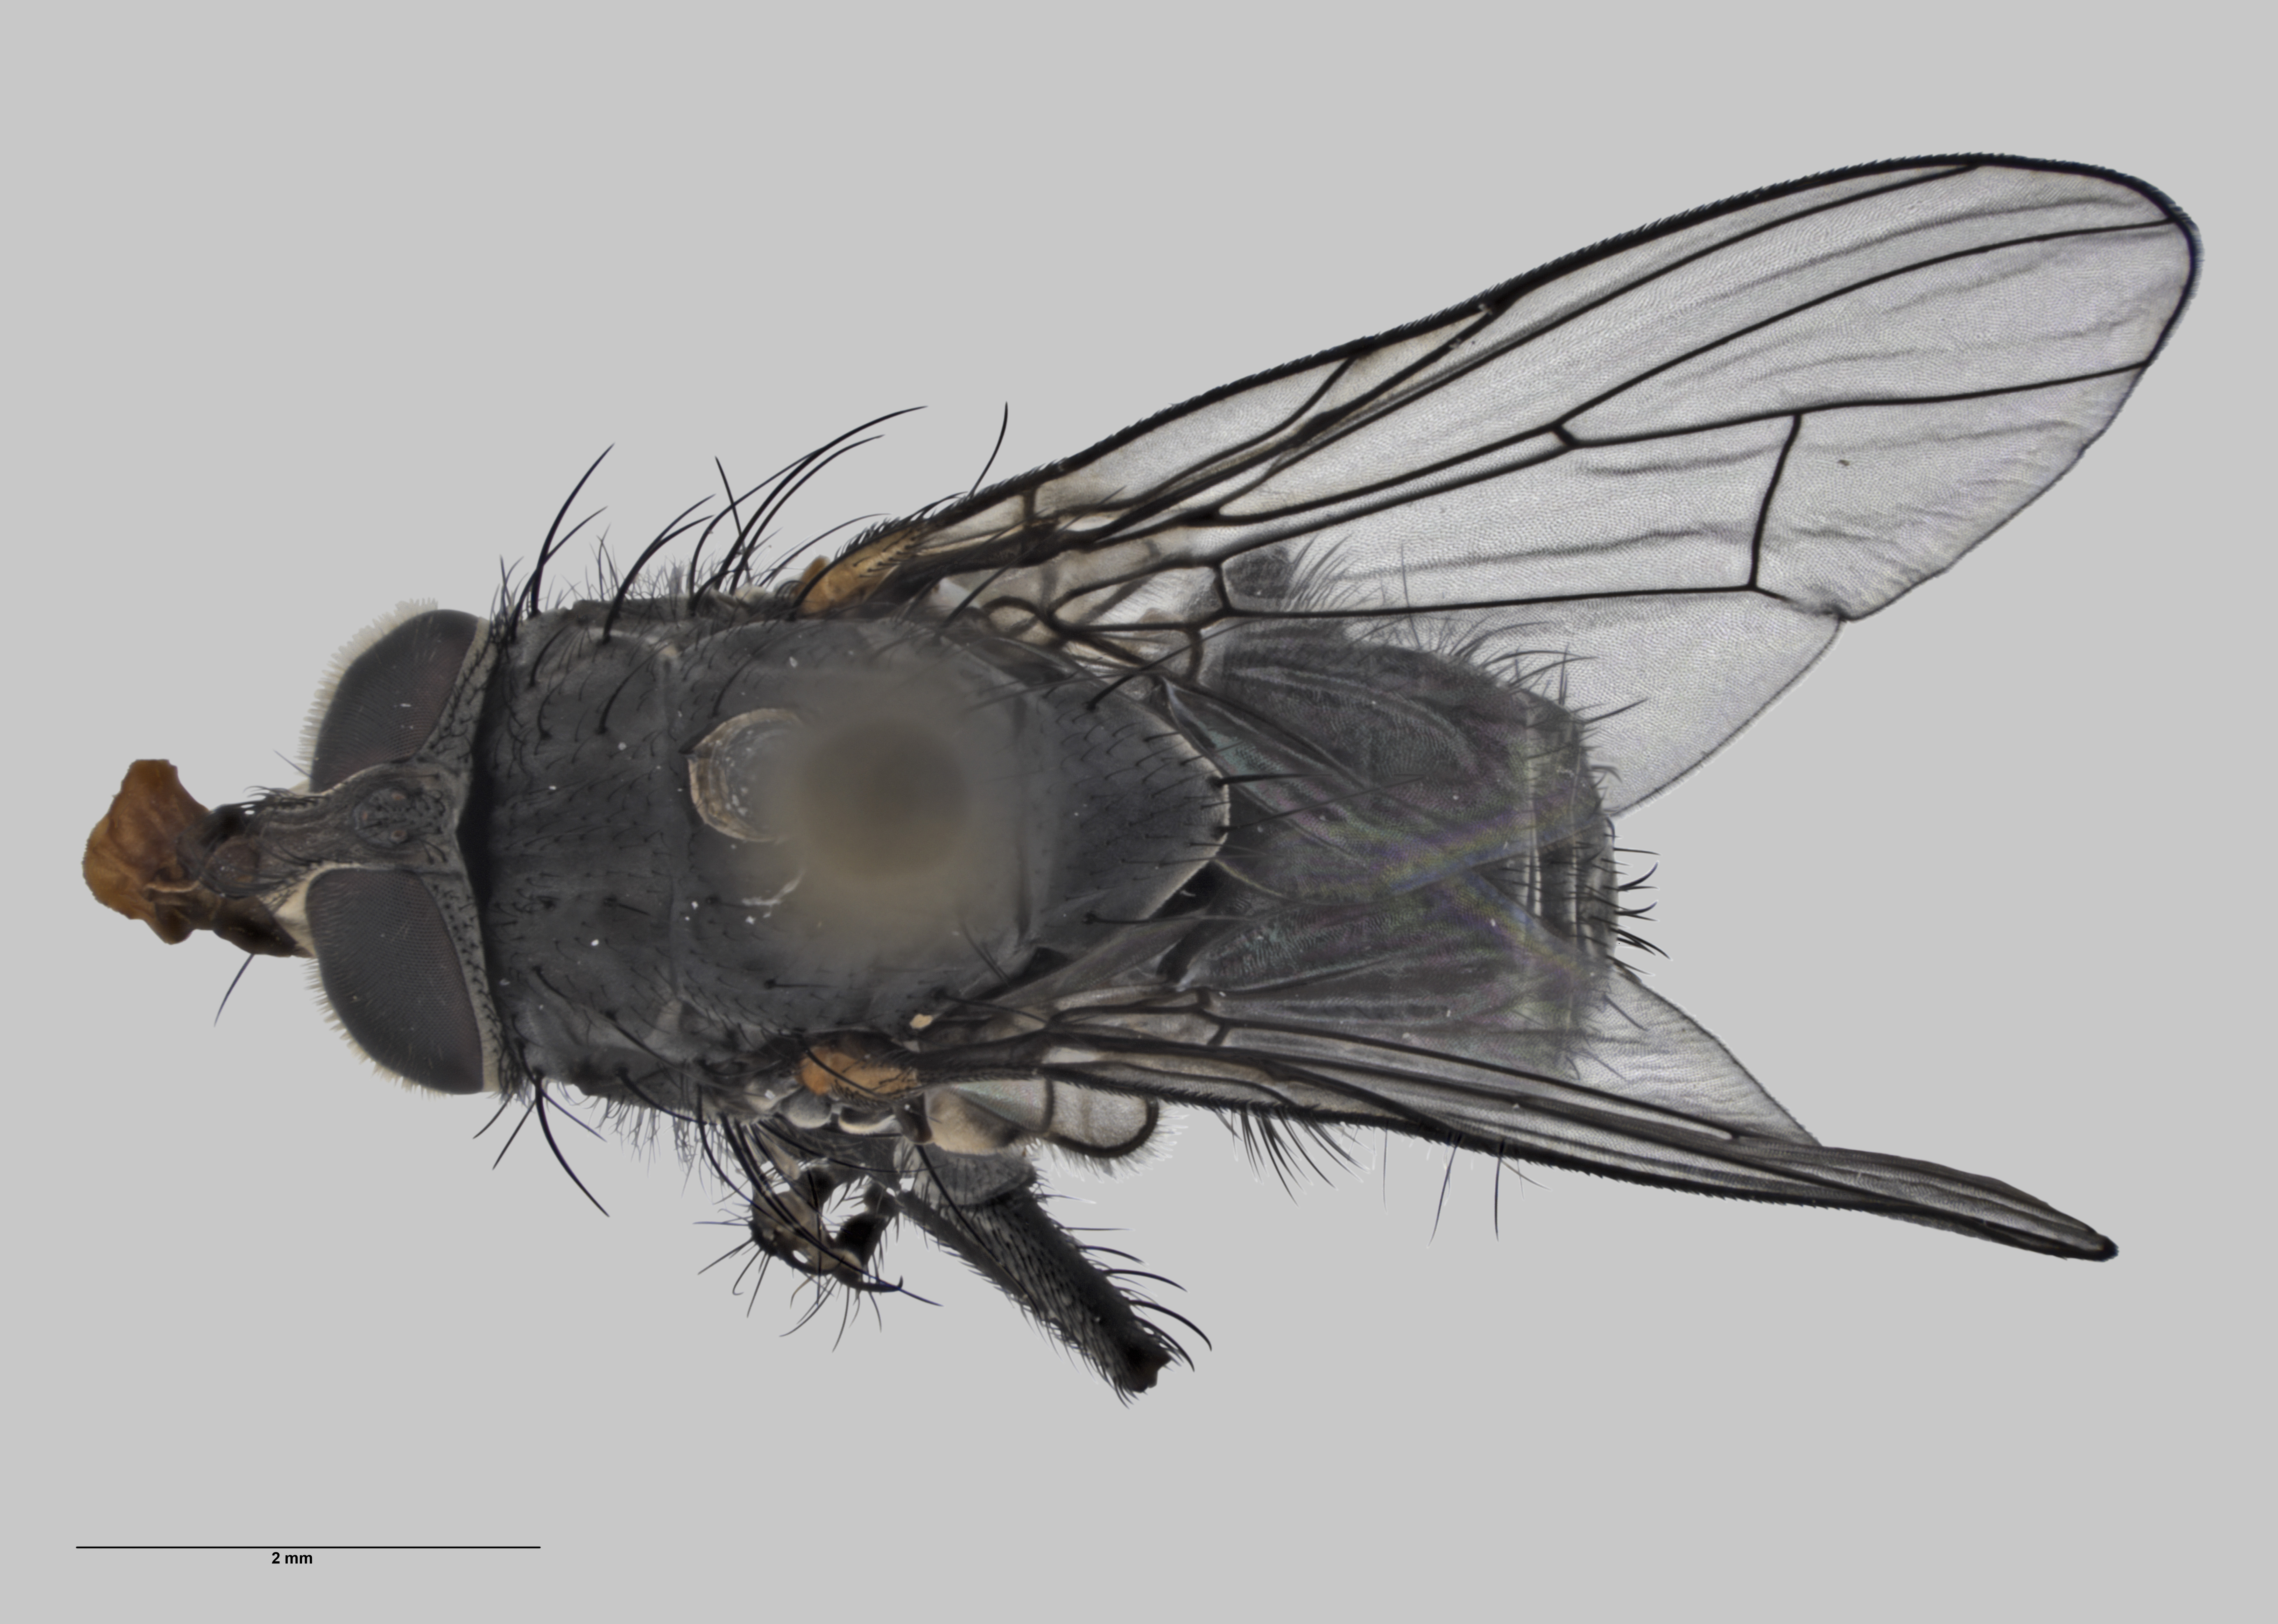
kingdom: Animalia
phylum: Arthropoda
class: Insecta
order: Diptera
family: Muscidae
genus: Spilogona
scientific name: Spilogona
